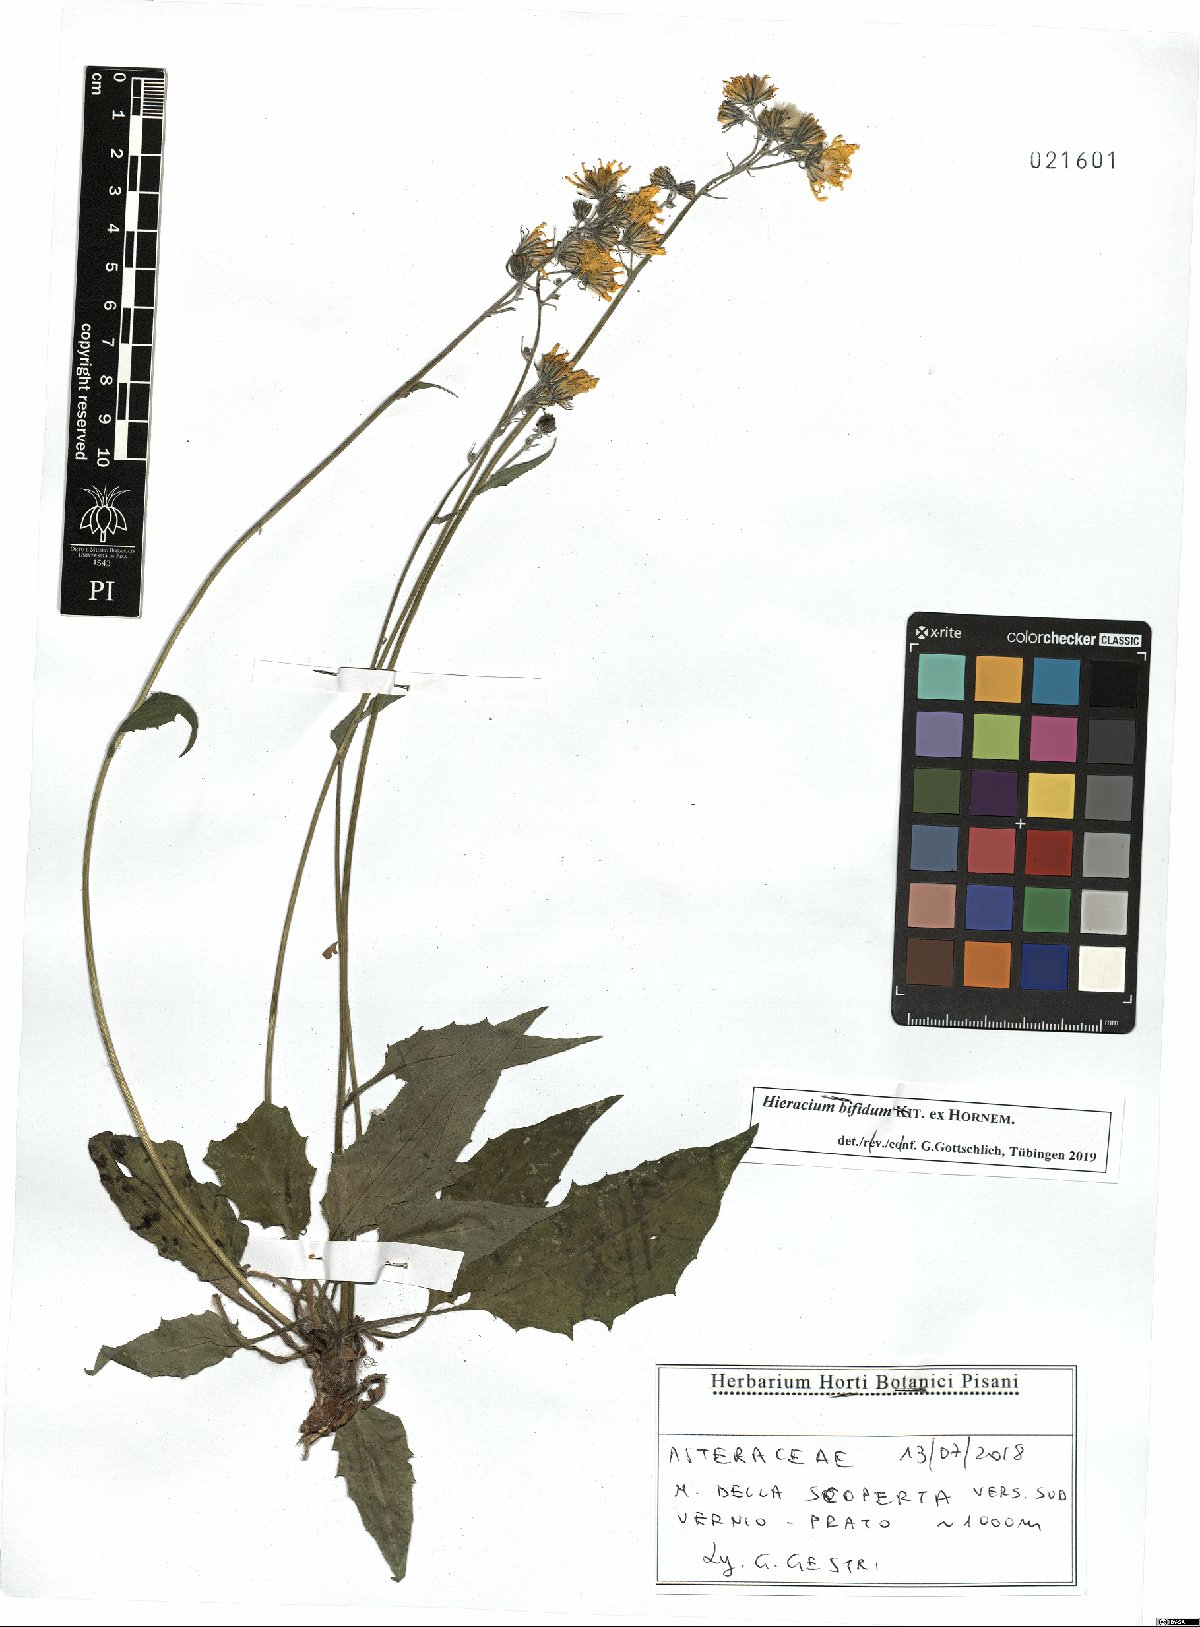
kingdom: Plantae
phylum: Tracheophyta
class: Magnoliopsida
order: Asterales
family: Asteraceae
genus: Hieracium
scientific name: Hieracium bifidum
